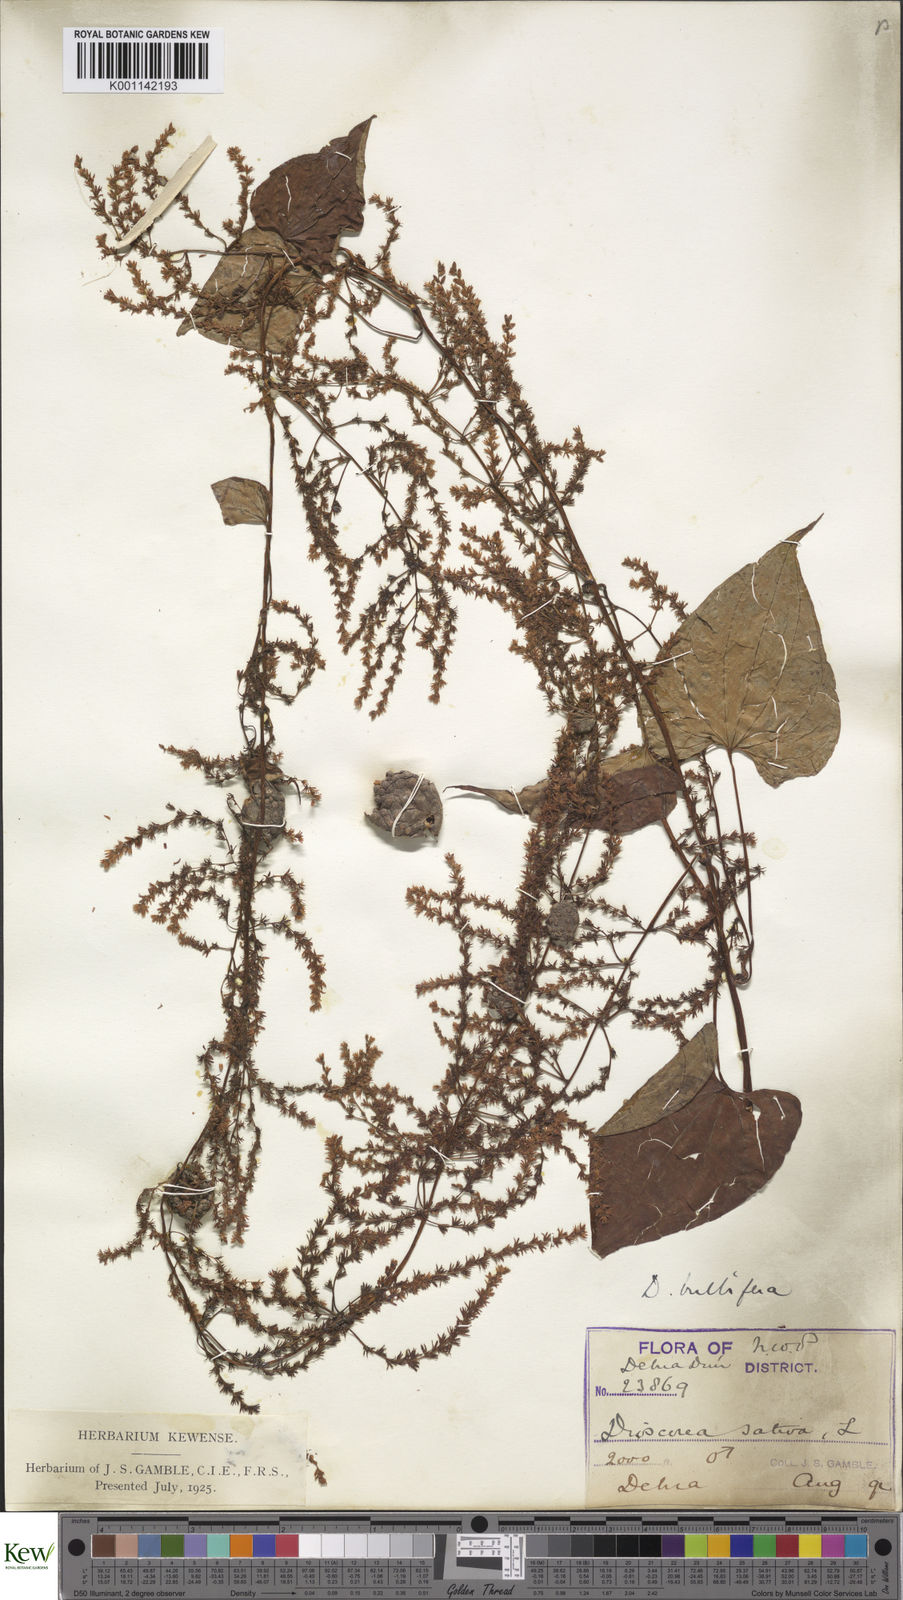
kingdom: Plantae
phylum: Tracheophyta
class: Liliopsida
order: Dioscoreales
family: Dioscoreaceae
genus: Dioscorea
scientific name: Dioscorea bulbifera
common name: Air yam
